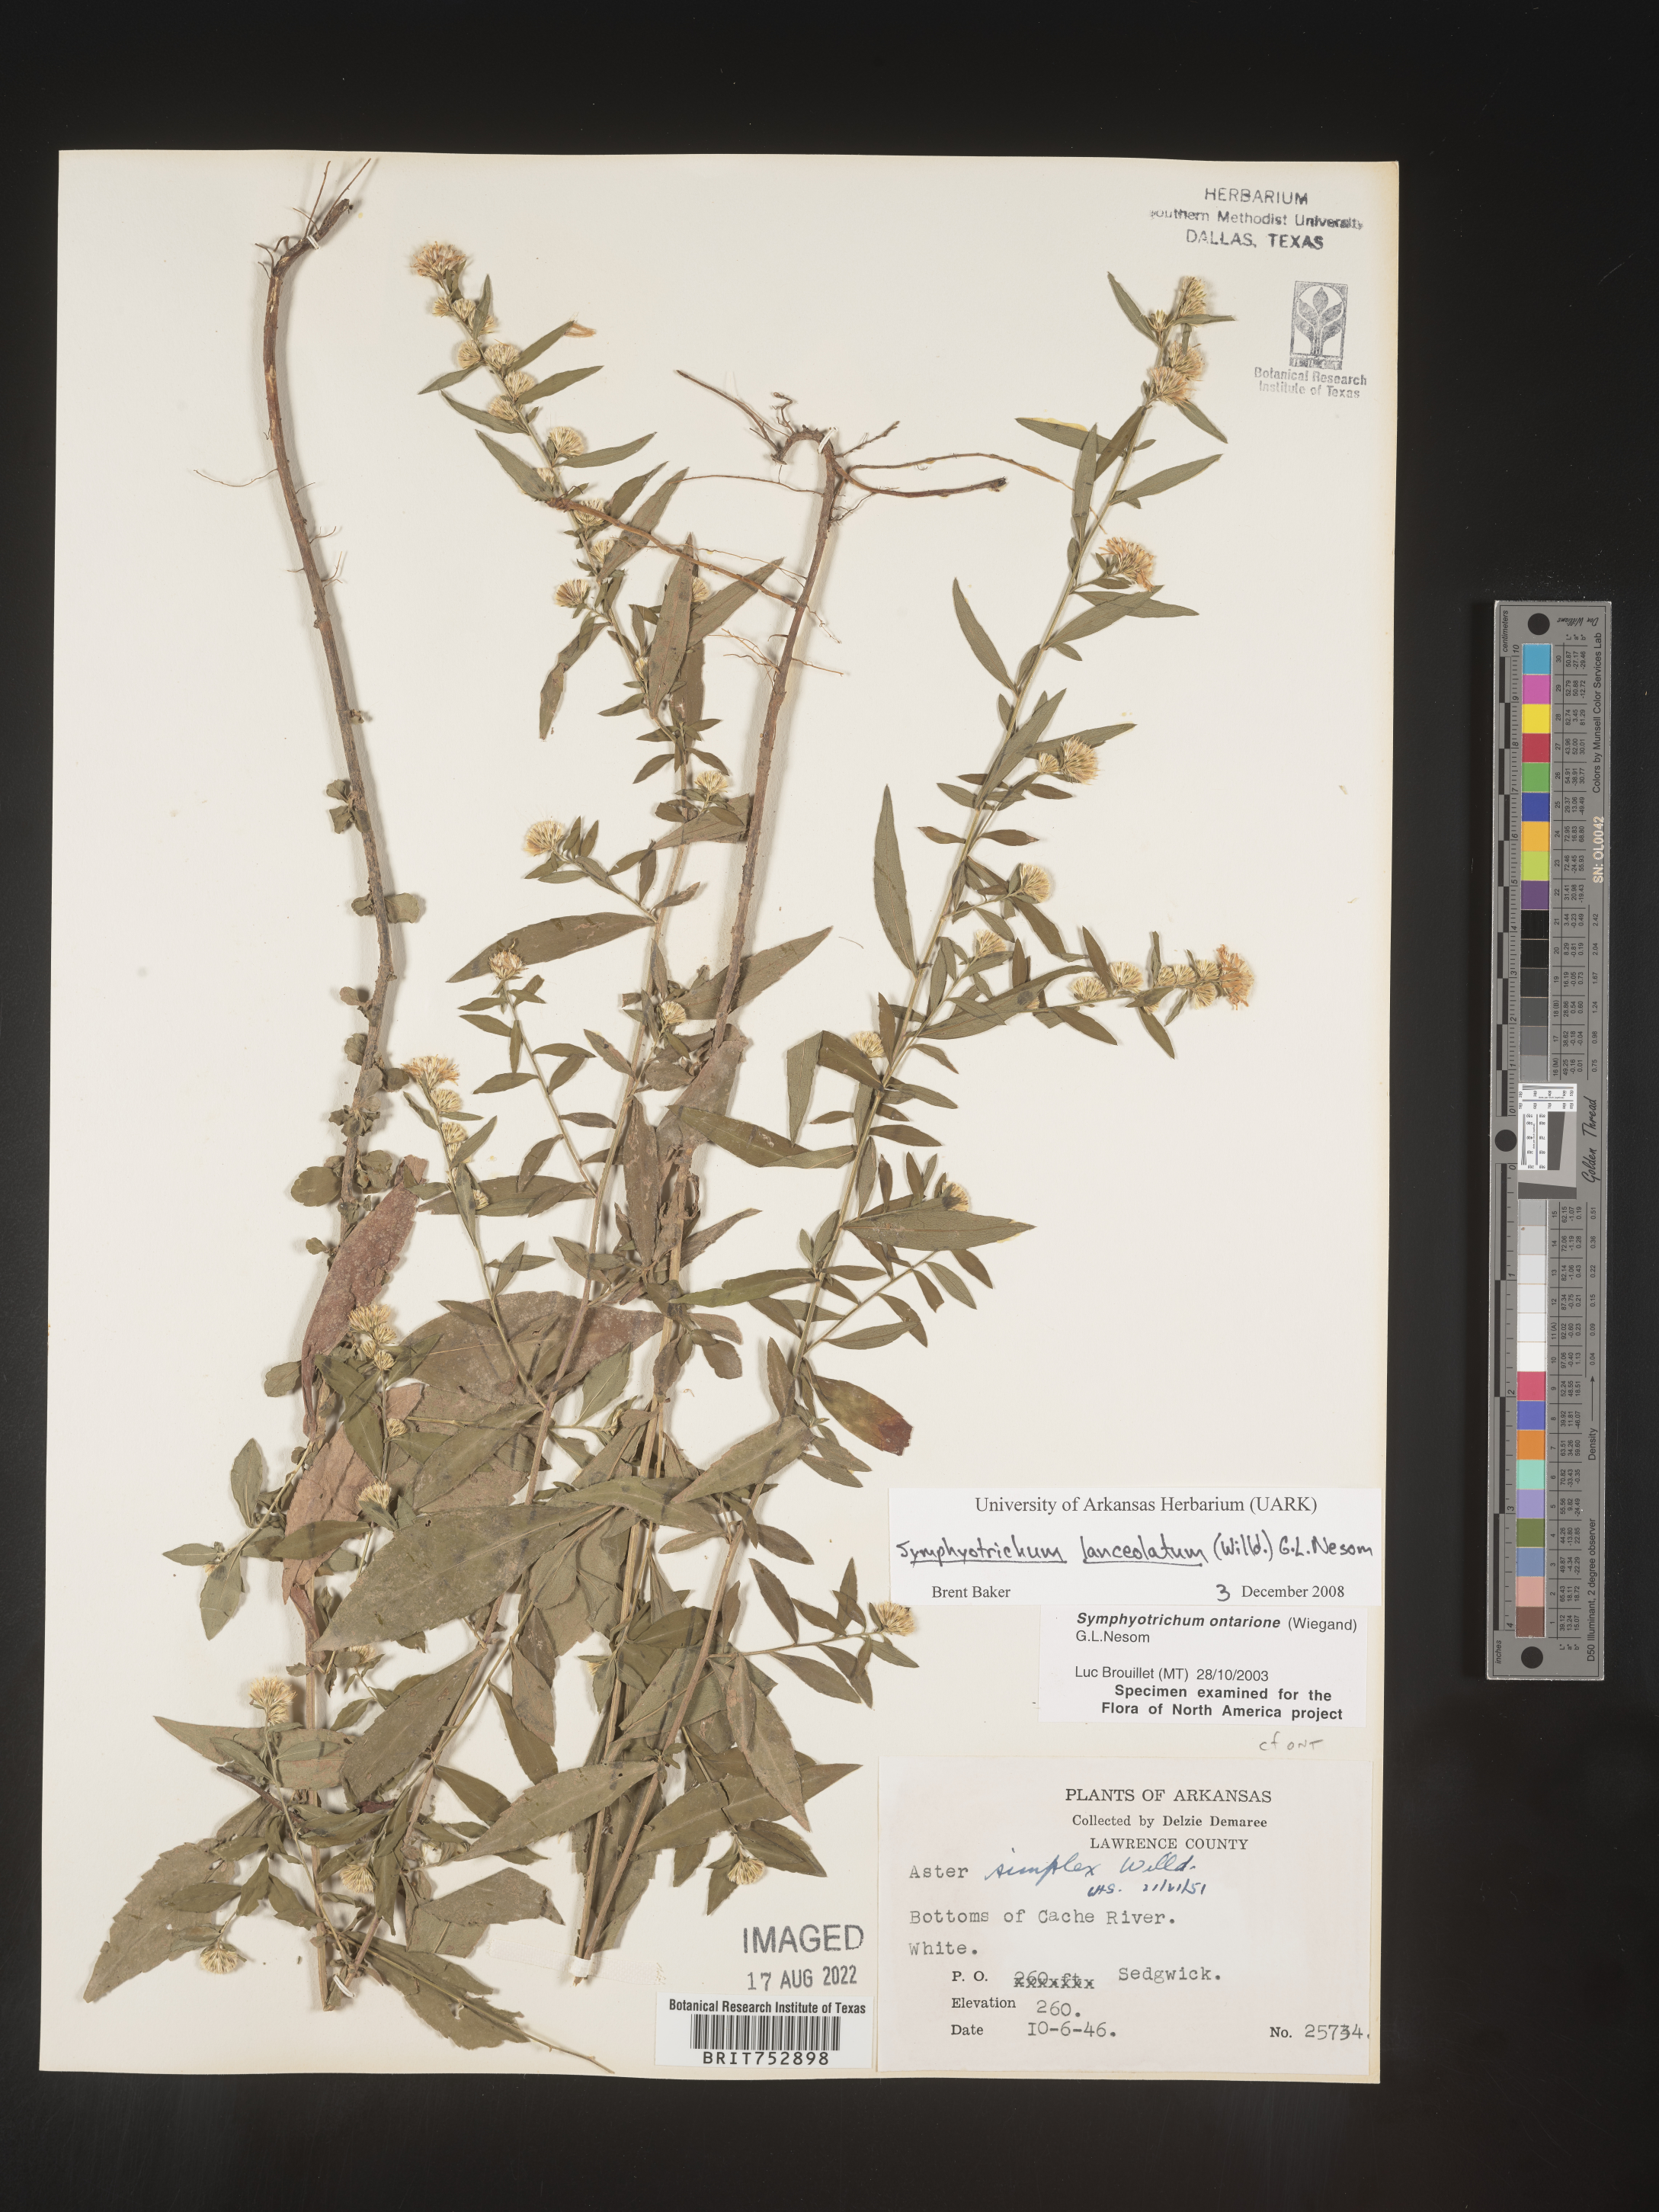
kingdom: Plantae
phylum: Tracheophyta
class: Magnoliopsida
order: Asterales
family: Asteraceae
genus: Symphyotrichum
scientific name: Symphyotrichum lateriflorum
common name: Calico aster
